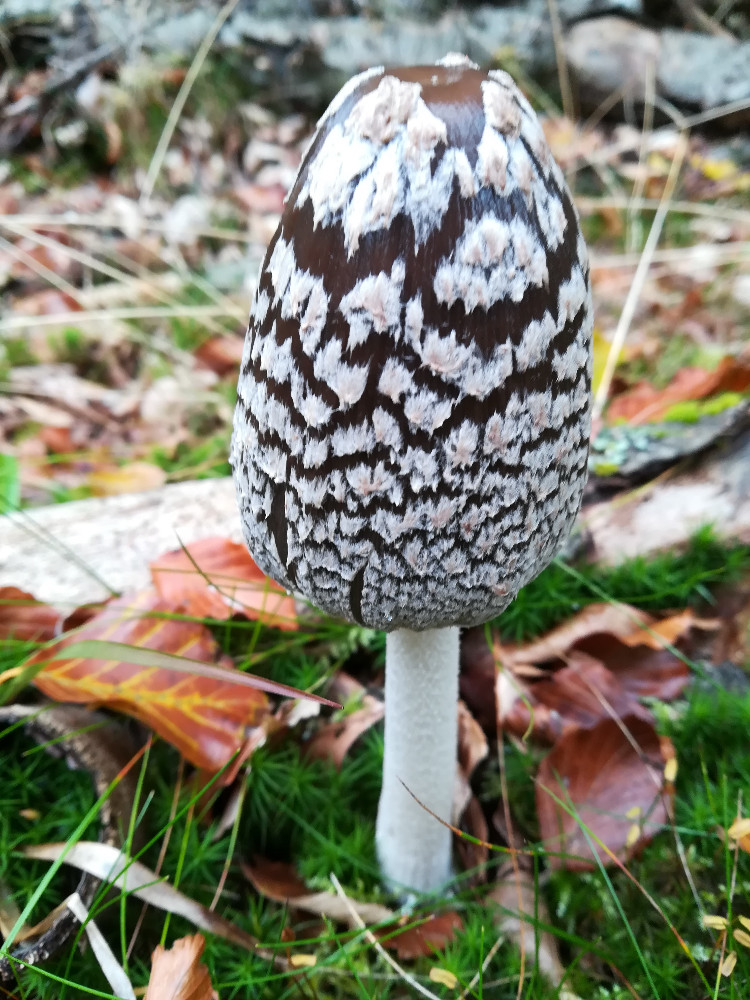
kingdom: Fungi
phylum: Basidiomycota
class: Agaricomycetes
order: Agaricales
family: Psathyrellaceae
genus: Coprinopsis
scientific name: Coprinopsis picacea
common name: skade-blækhat
